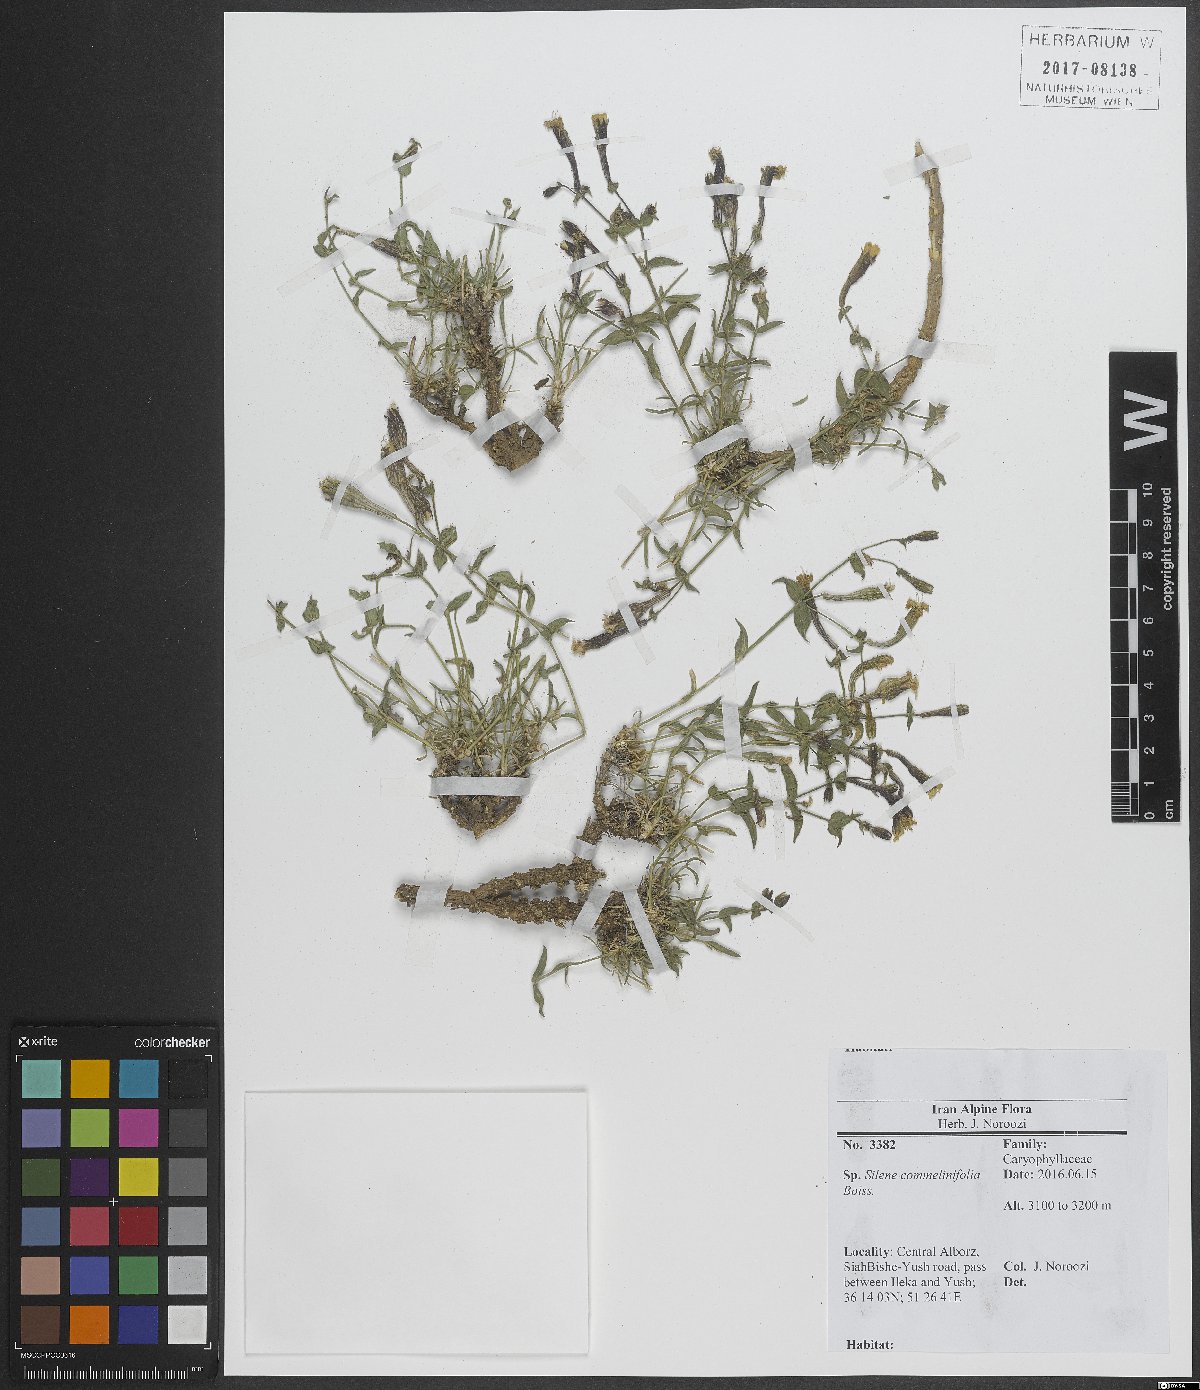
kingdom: Plantae
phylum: Tracheophyta
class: Magnoliopsida
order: Caryophyllales
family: Caryophyllaceae
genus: Silene
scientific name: Silene commelinifolia
